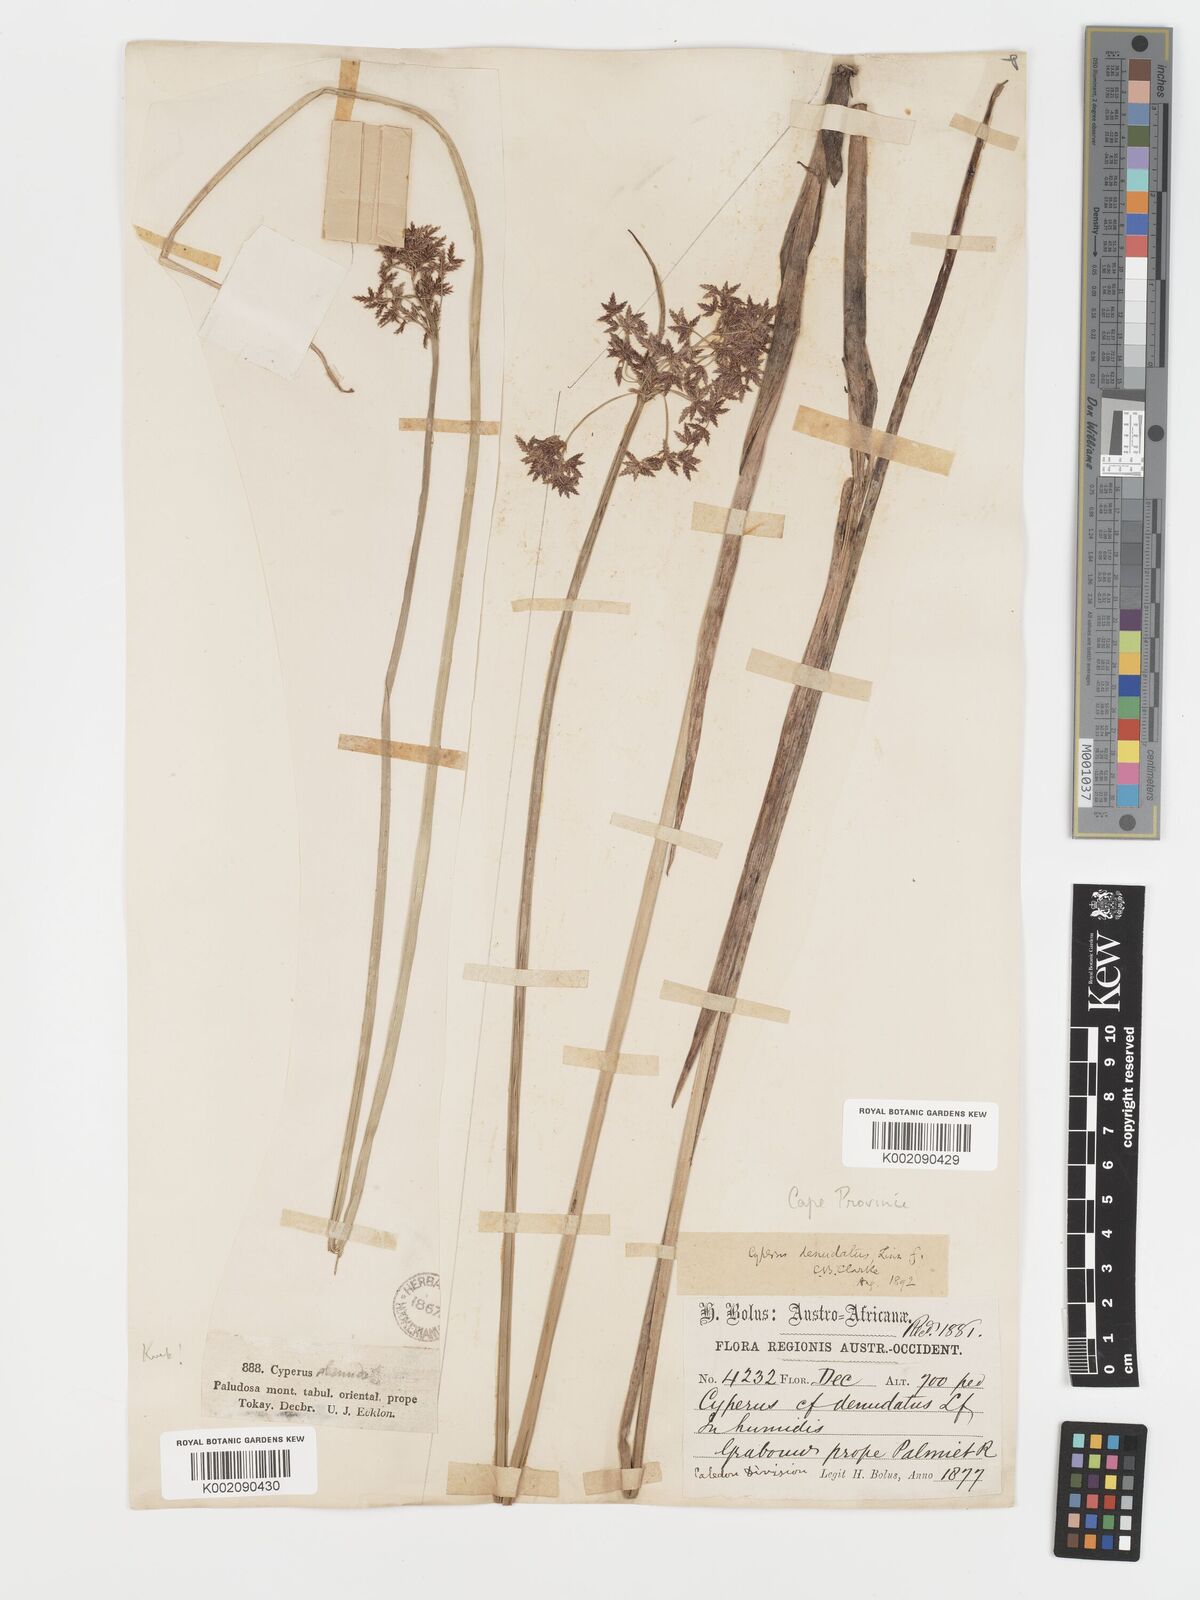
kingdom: Plantae
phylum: Tracheophyta
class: Liliopsida
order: Poales
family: Cyperaceae
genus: Cyperus
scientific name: Cyperus denudatus
